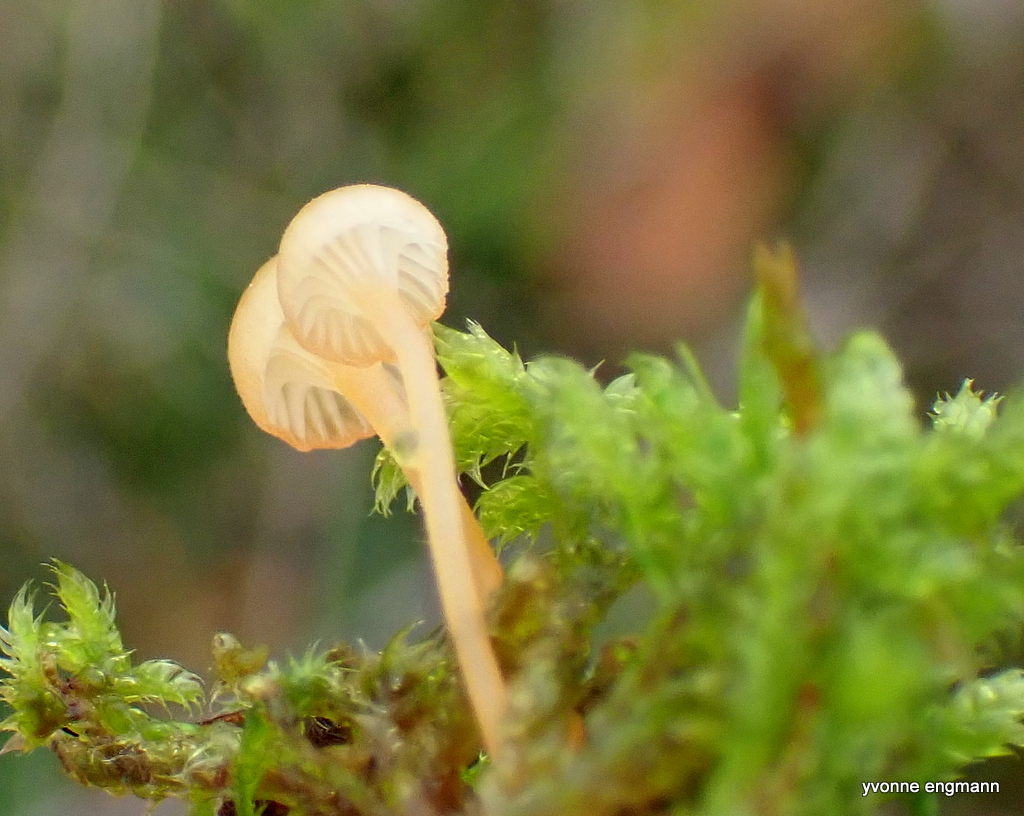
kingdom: Fungi
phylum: Basidiomycota
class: Agaricomycetes
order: Hymenochaetales
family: Rickenellaceae
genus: Rickenella
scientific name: Rickenella fibula
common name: orange mosnavlehat
